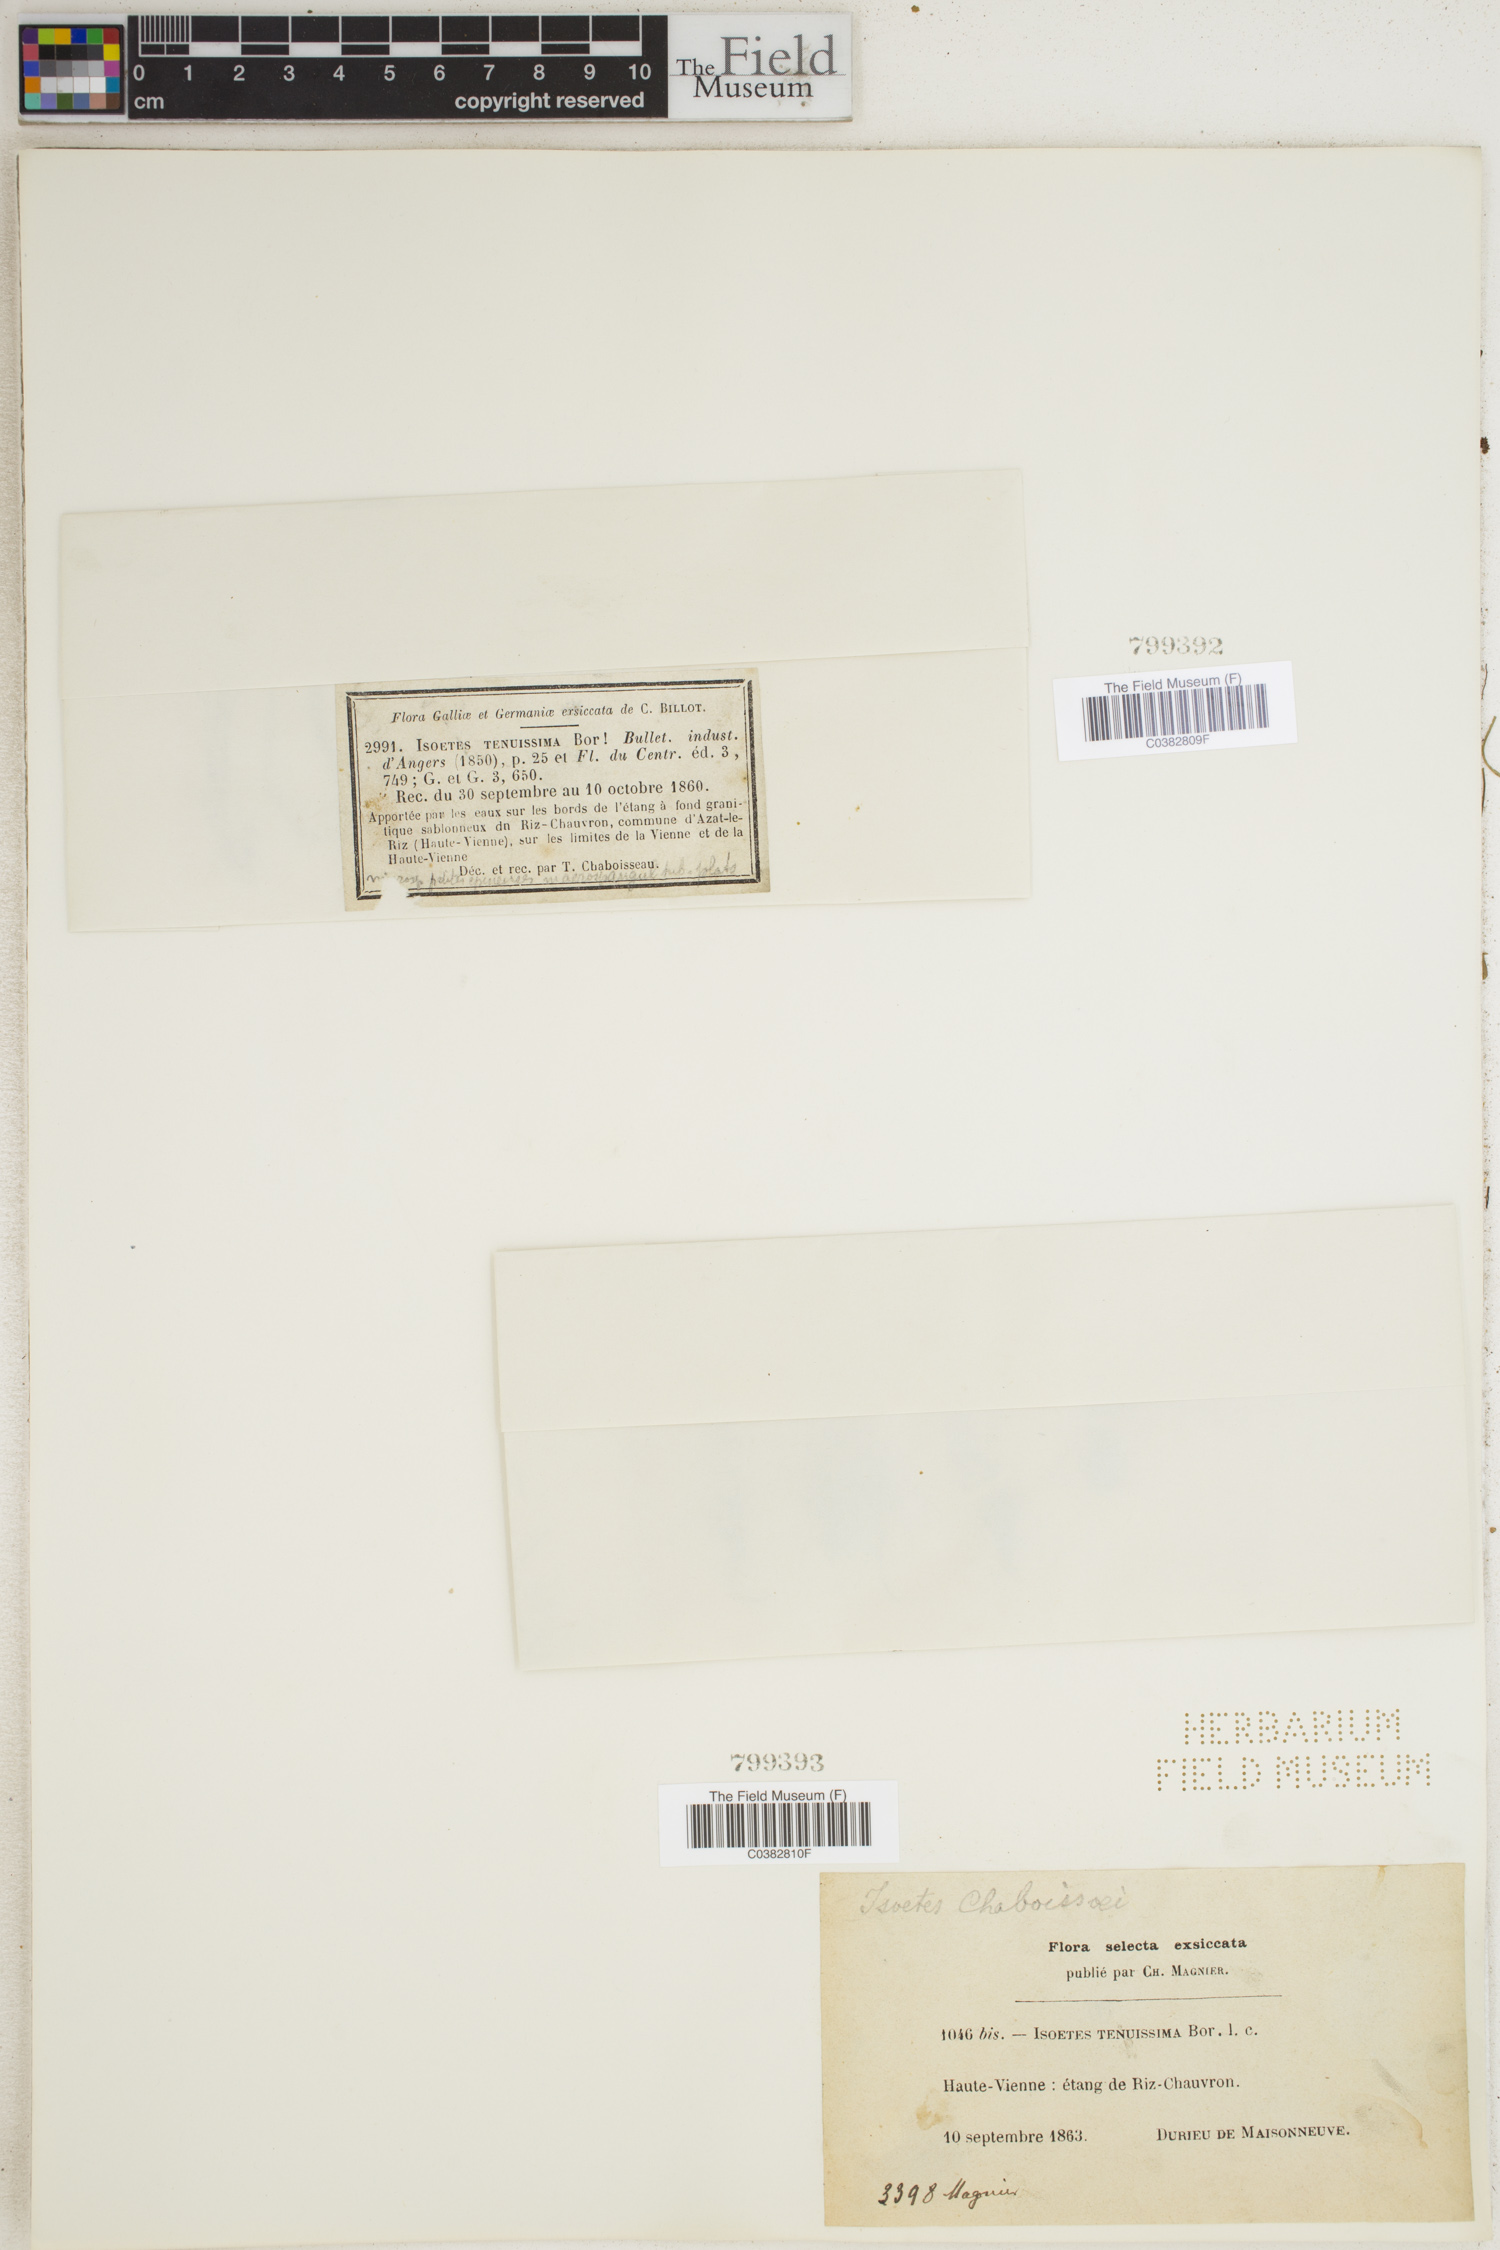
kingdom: Plantae
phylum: Tracheophyta
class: Lycopodiopsida
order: Isoetales
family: Isoetaceae
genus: Isoetes
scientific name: Isoetes
